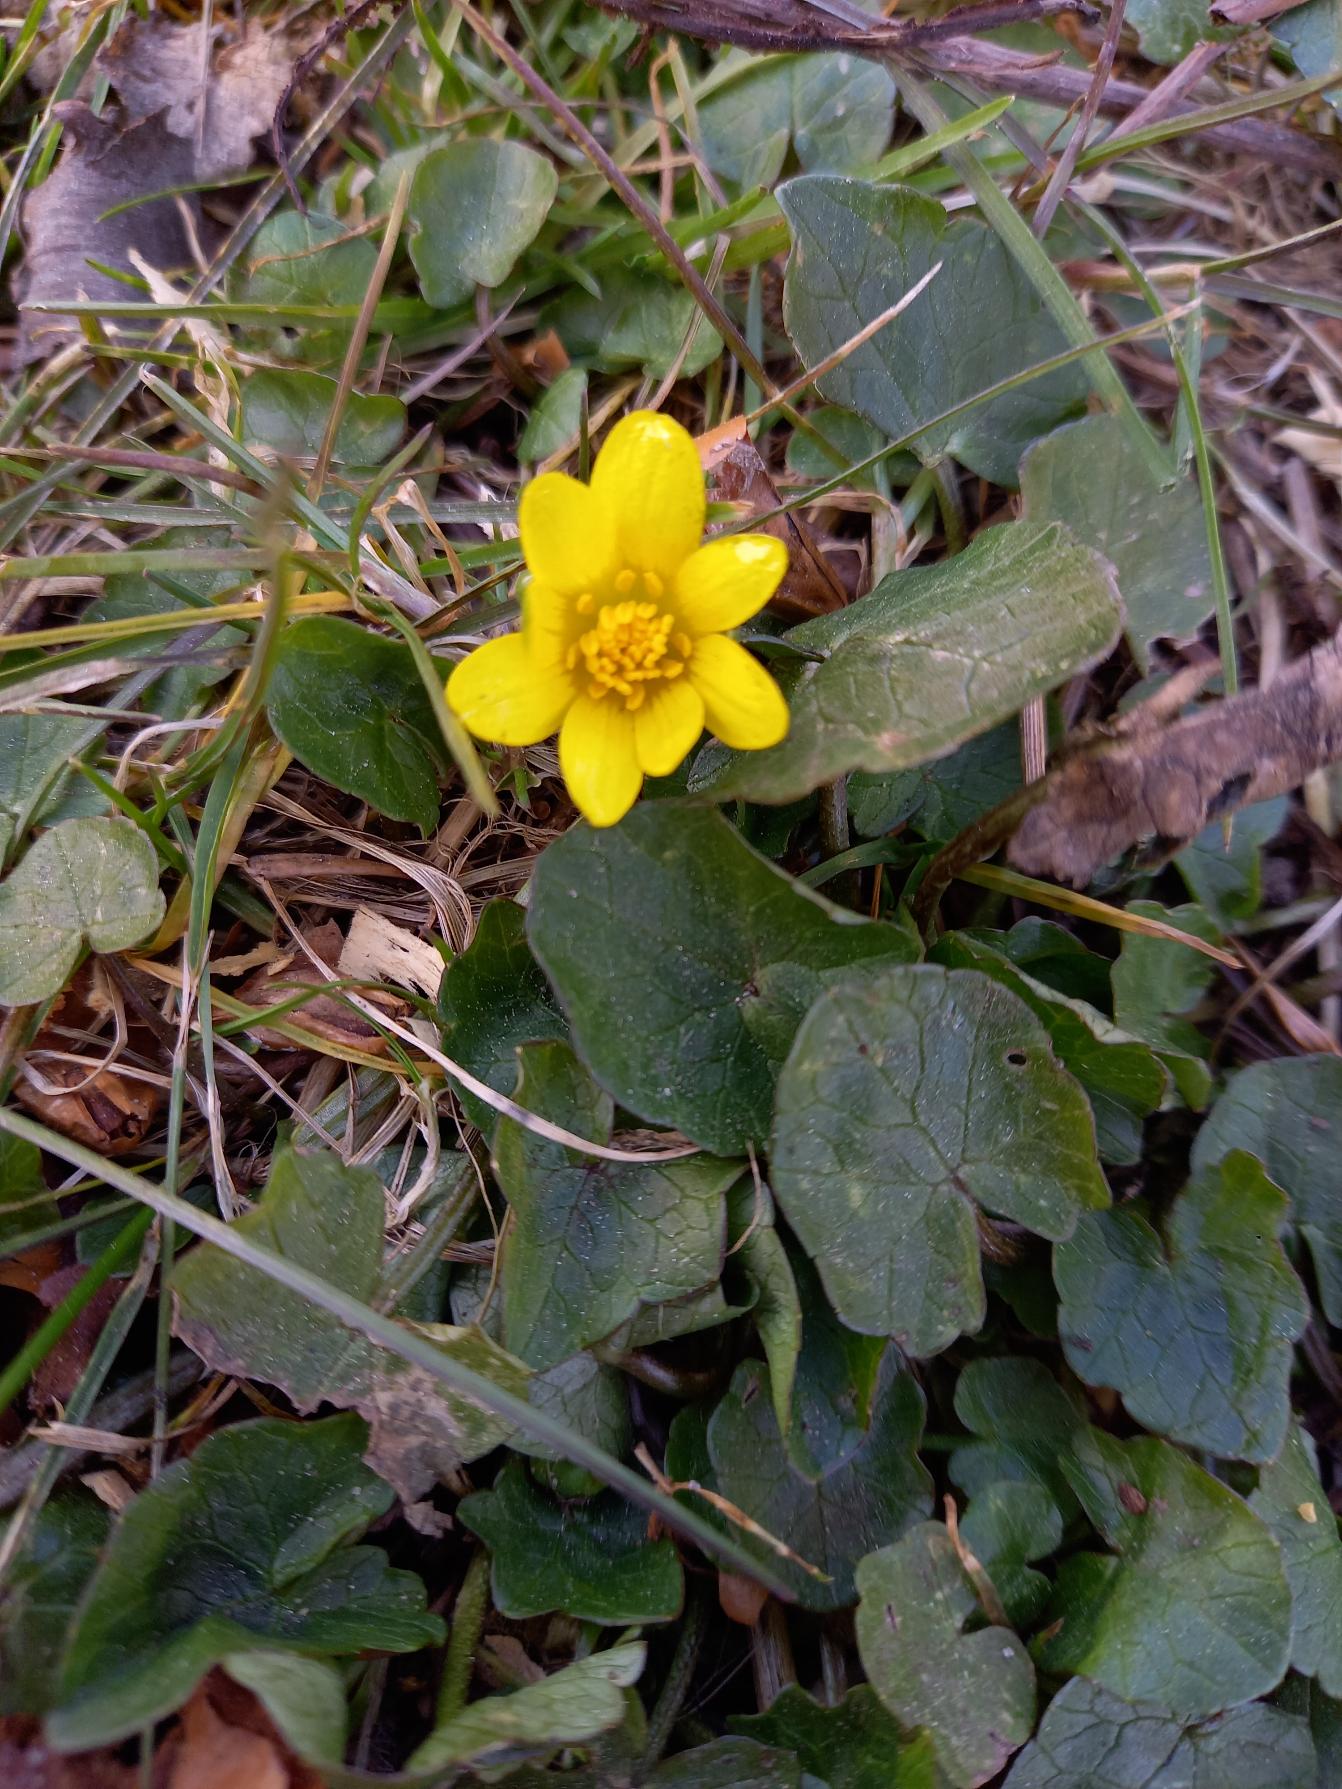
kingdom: Plantae
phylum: Tracheophyta
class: Magnoliopsida
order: Ranunculales
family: Ranunculaceae
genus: Ficaria
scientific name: Ficaria verna
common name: Vorterod
